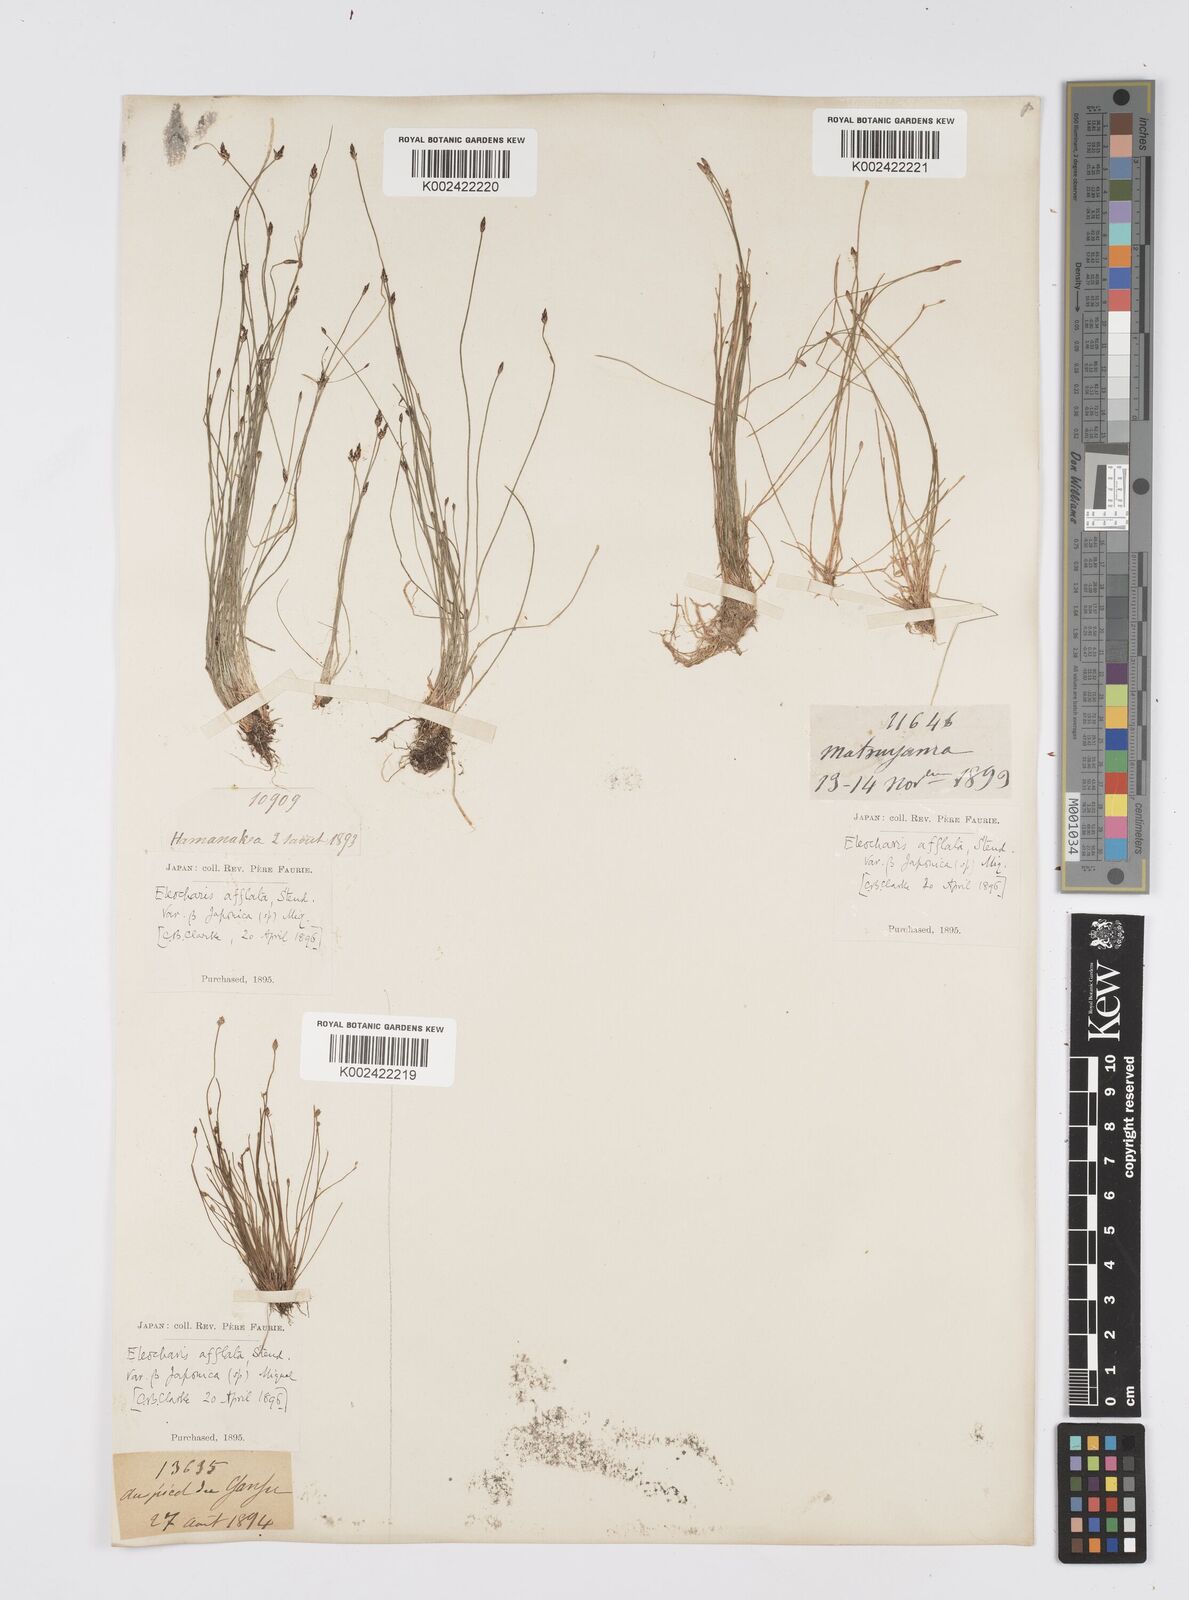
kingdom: Plantae
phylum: Tracheophyta
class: Liliopsida
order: Poales
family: Cyperaceae
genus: Eleocharis
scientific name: Eleocharis pellucida
